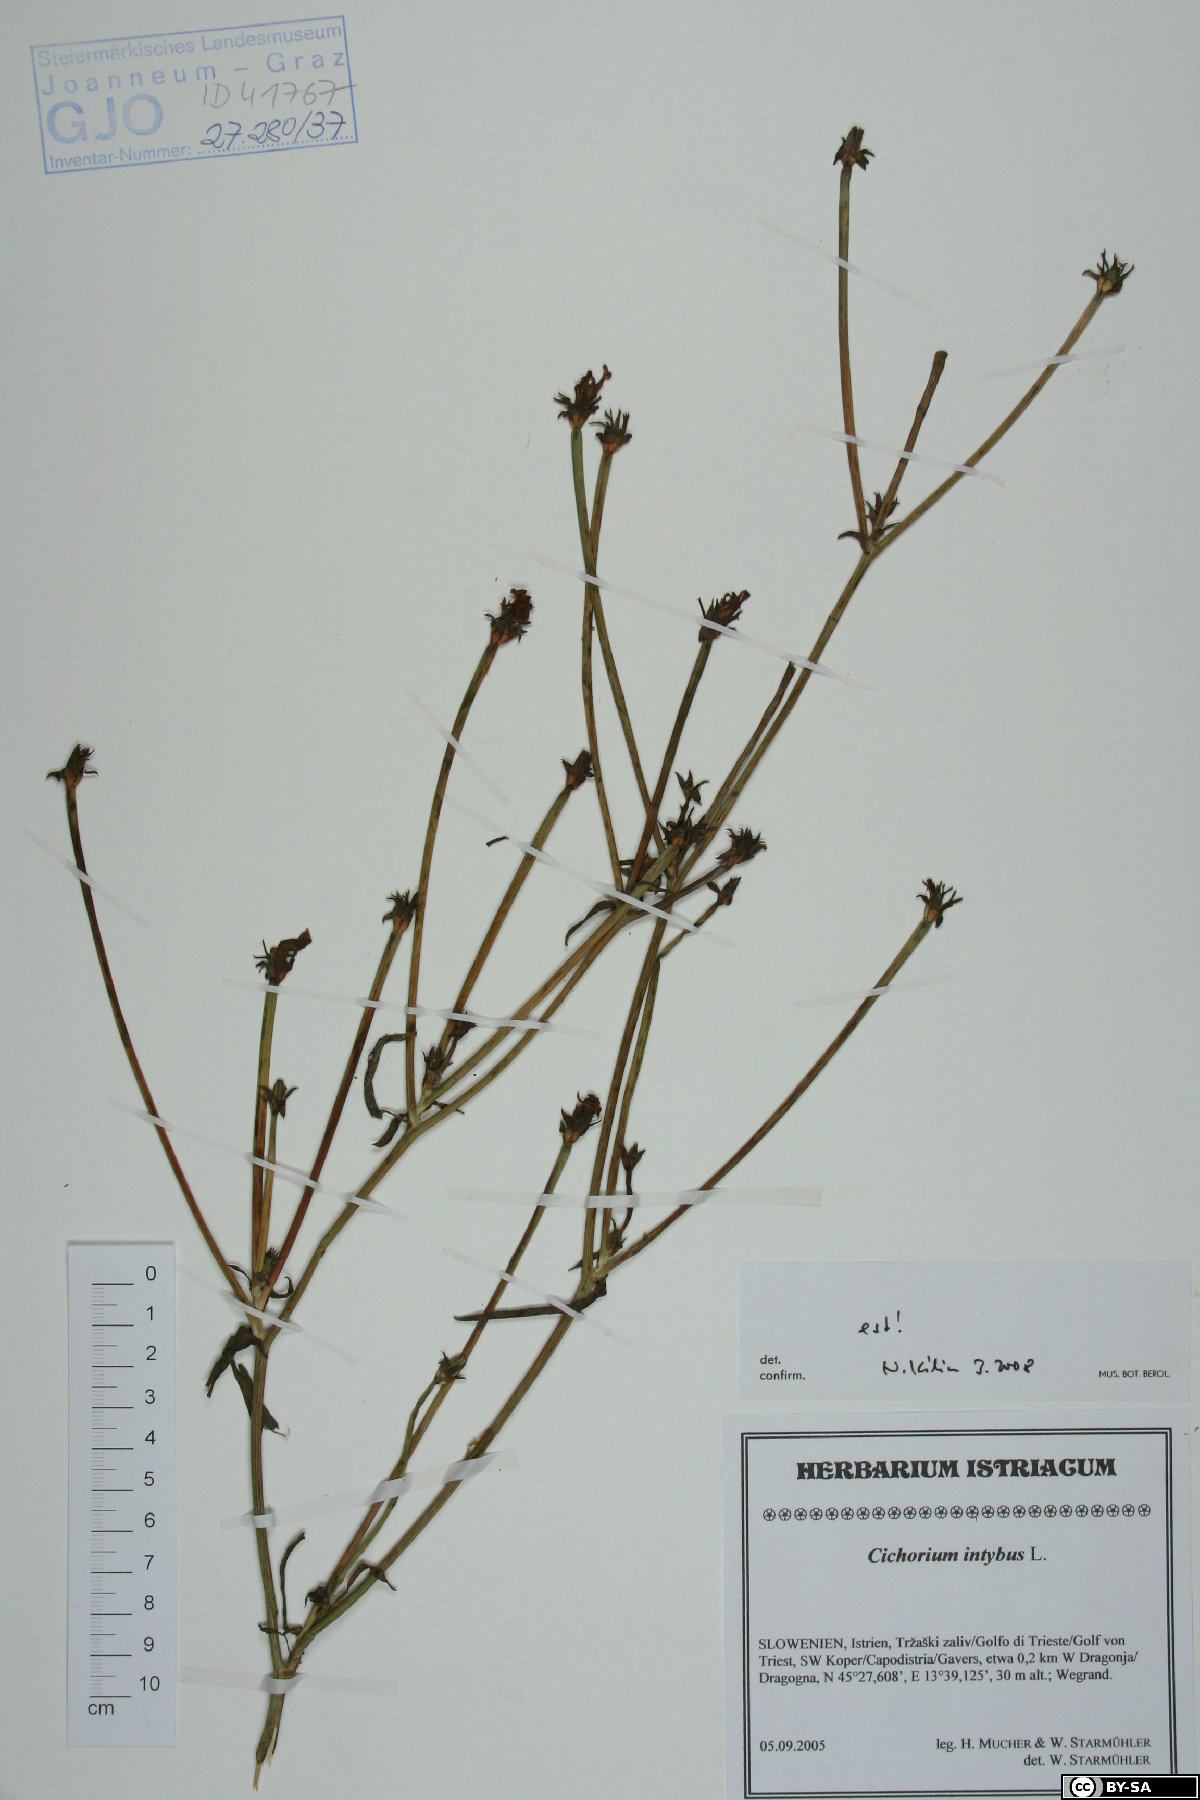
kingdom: Plantae
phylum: Tracheophyta
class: Magnoliopsida
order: Asterales
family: Asteraceae
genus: Cichorium
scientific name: Cichorium intybus
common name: Chicory
